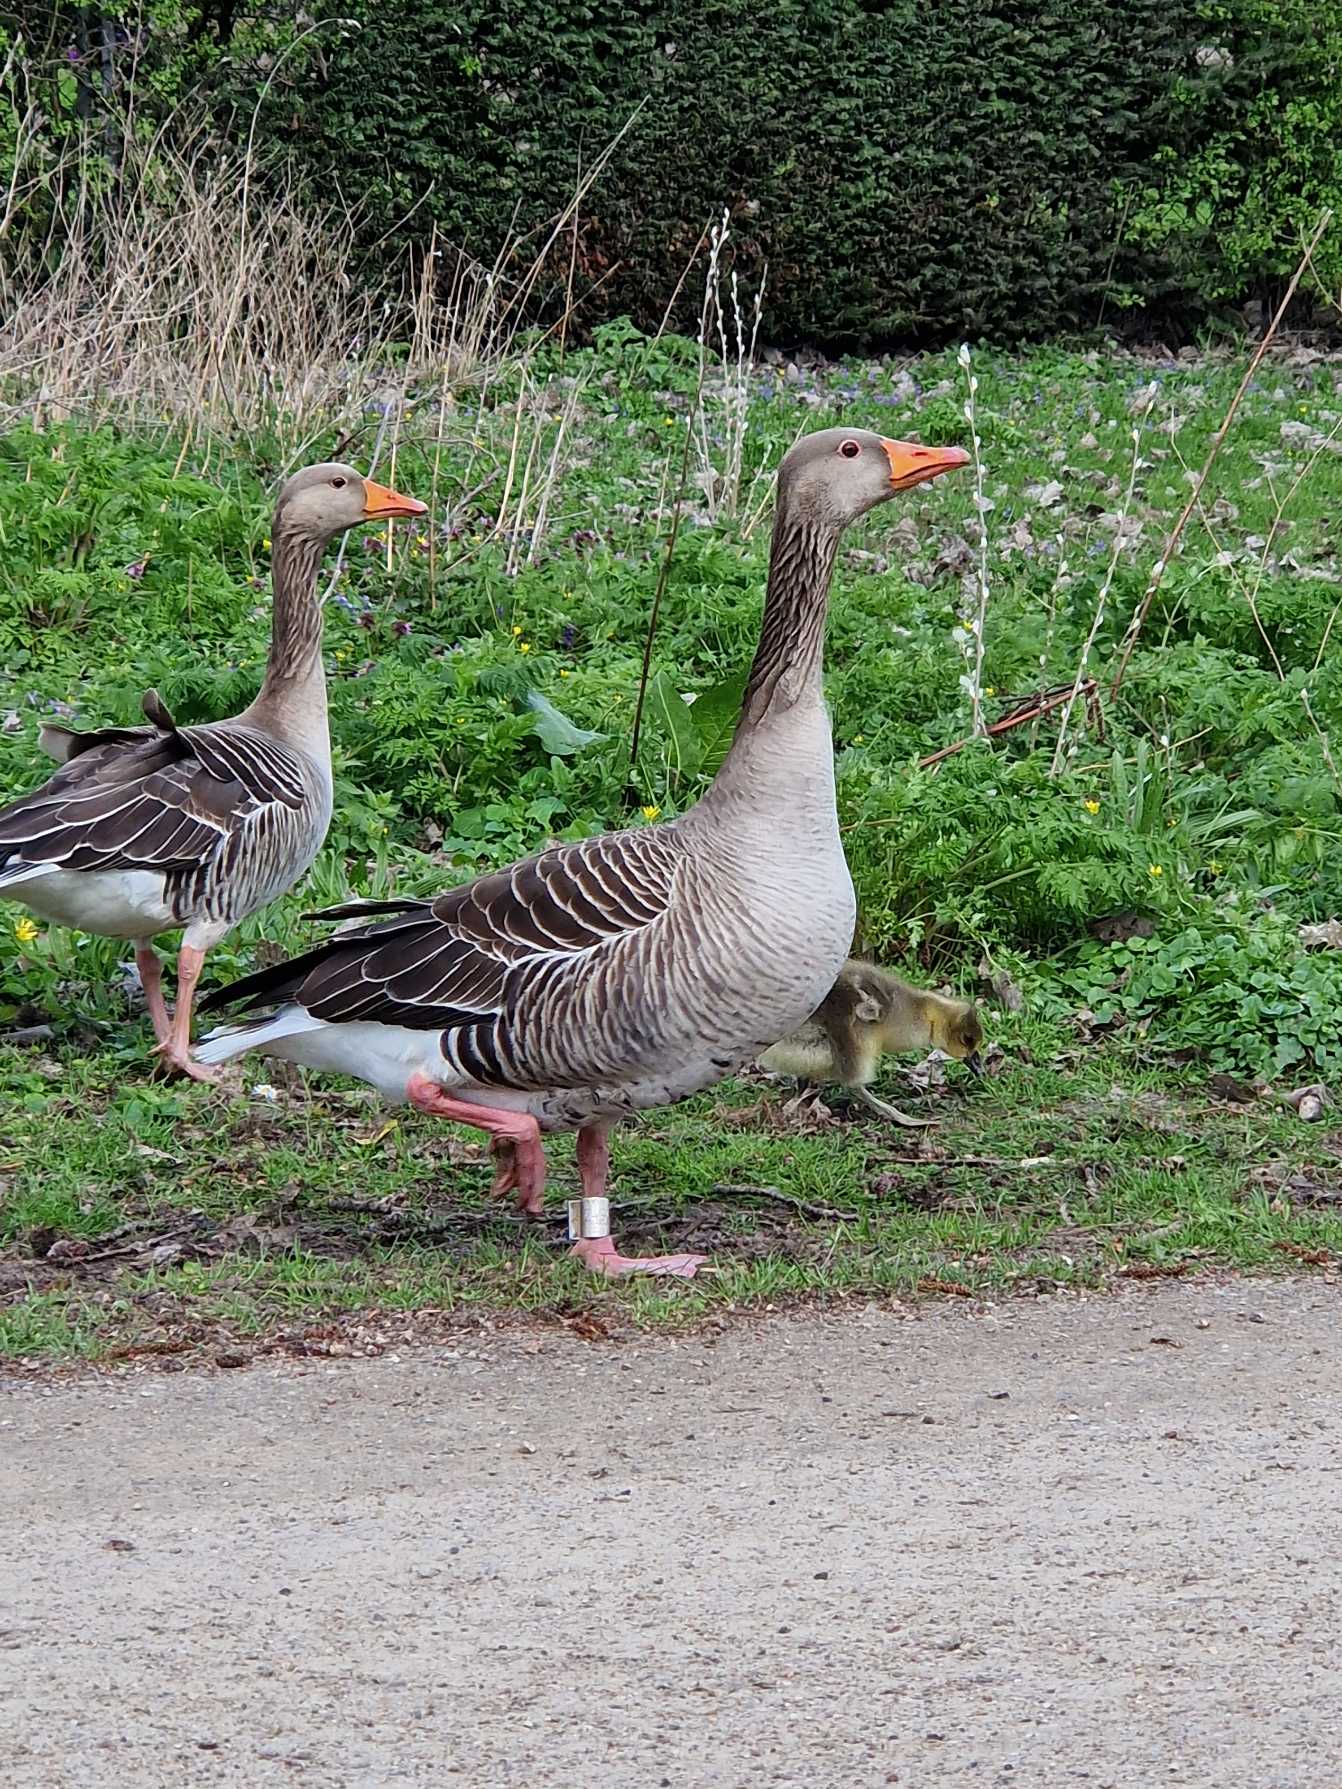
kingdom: Animalia
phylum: Chordata
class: Aves
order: Anseriformes
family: Anatidae
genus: Anser
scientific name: Anser anser
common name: Grågås
